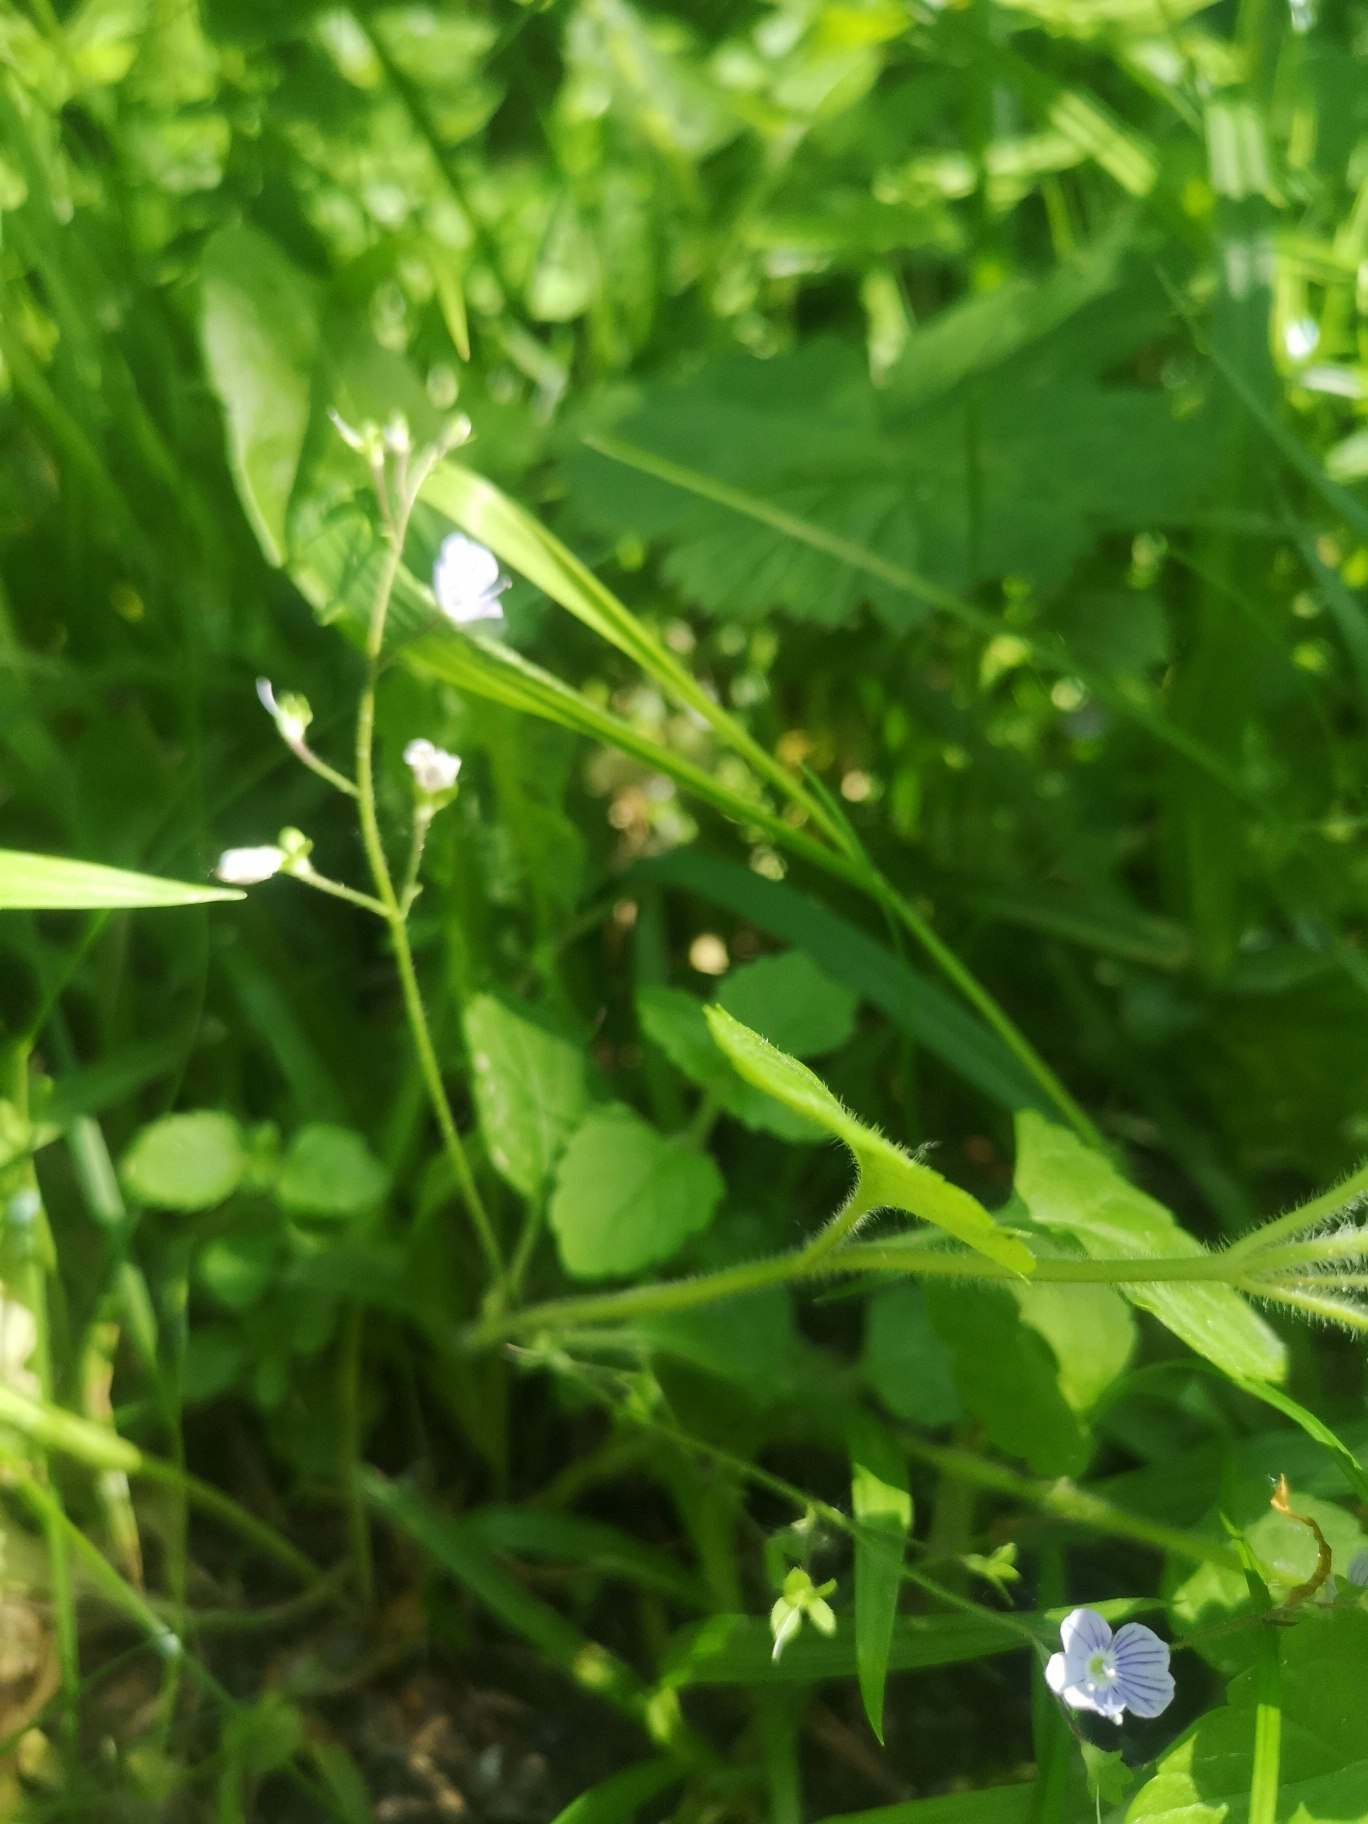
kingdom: Plantae
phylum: Tracheophyta
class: Magnoliopsida
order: Lamiales
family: Plantaginaceae
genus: Veronica
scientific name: Veronica montana
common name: Bjerg-ærenpris
